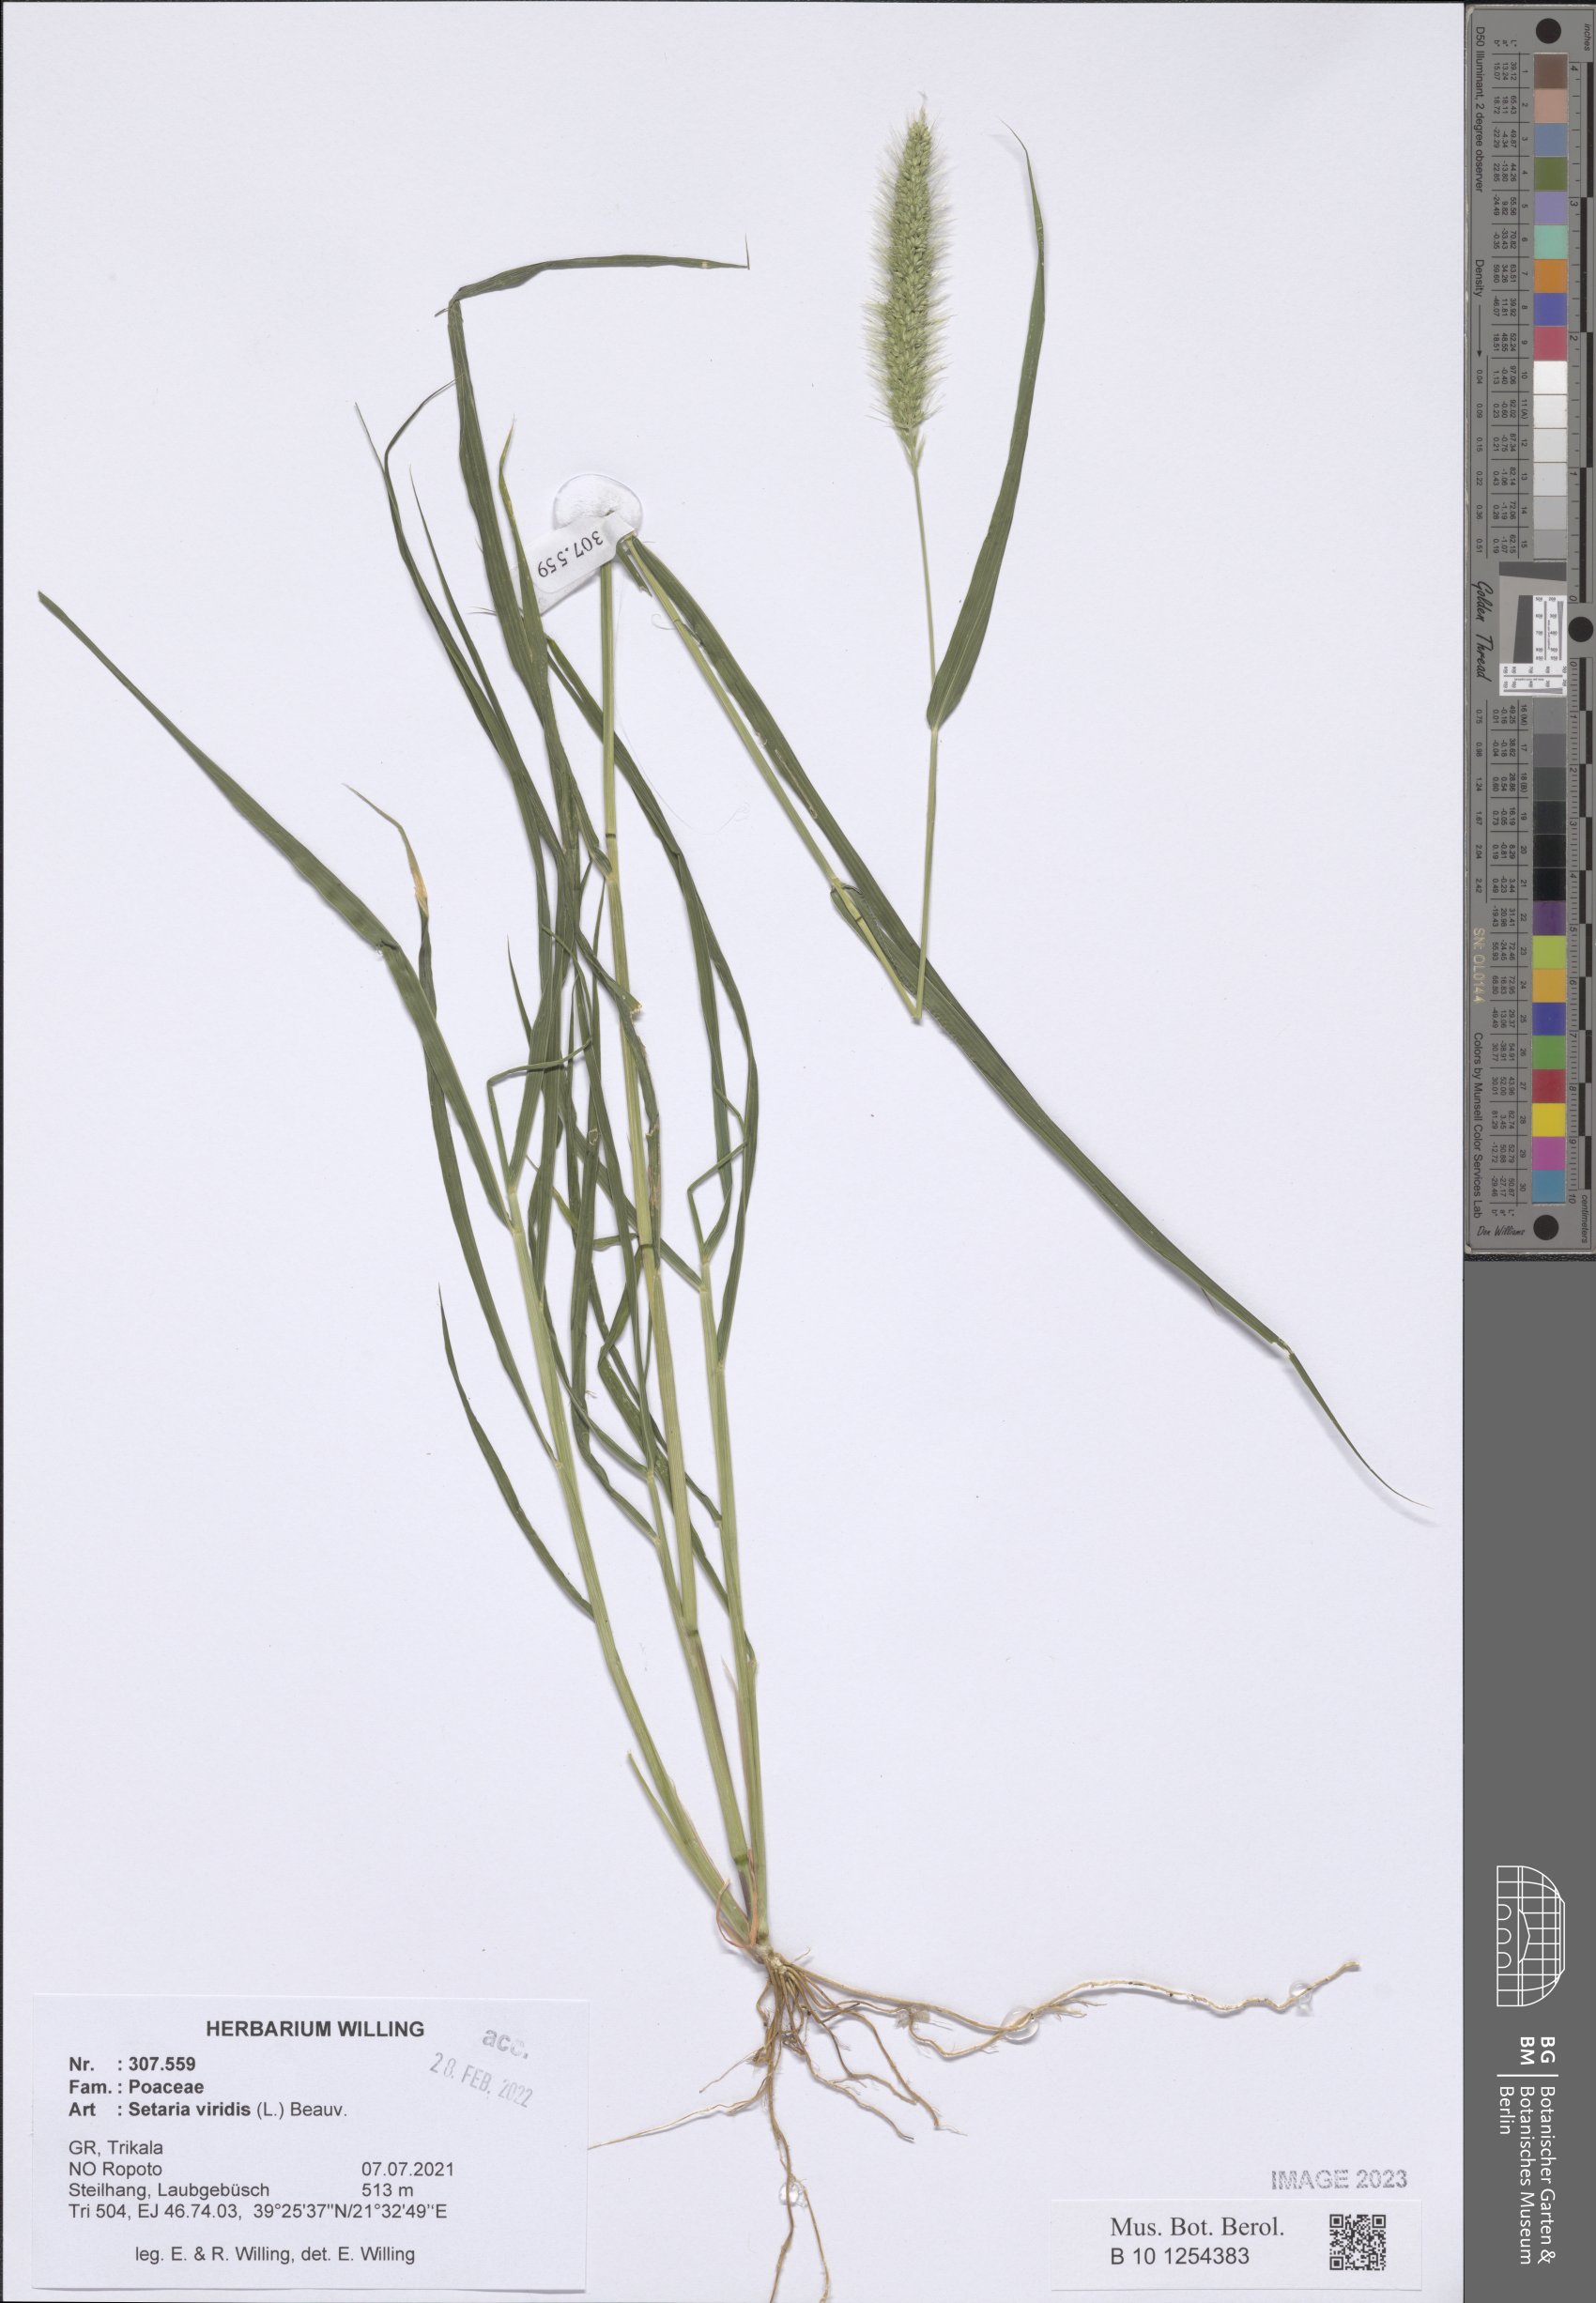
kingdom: Plantae
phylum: Tracheophyta
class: Liliopsida
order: Poales
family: Poaceae
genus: Setaria
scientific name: Setaria viridis
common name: Green bristlegrass
